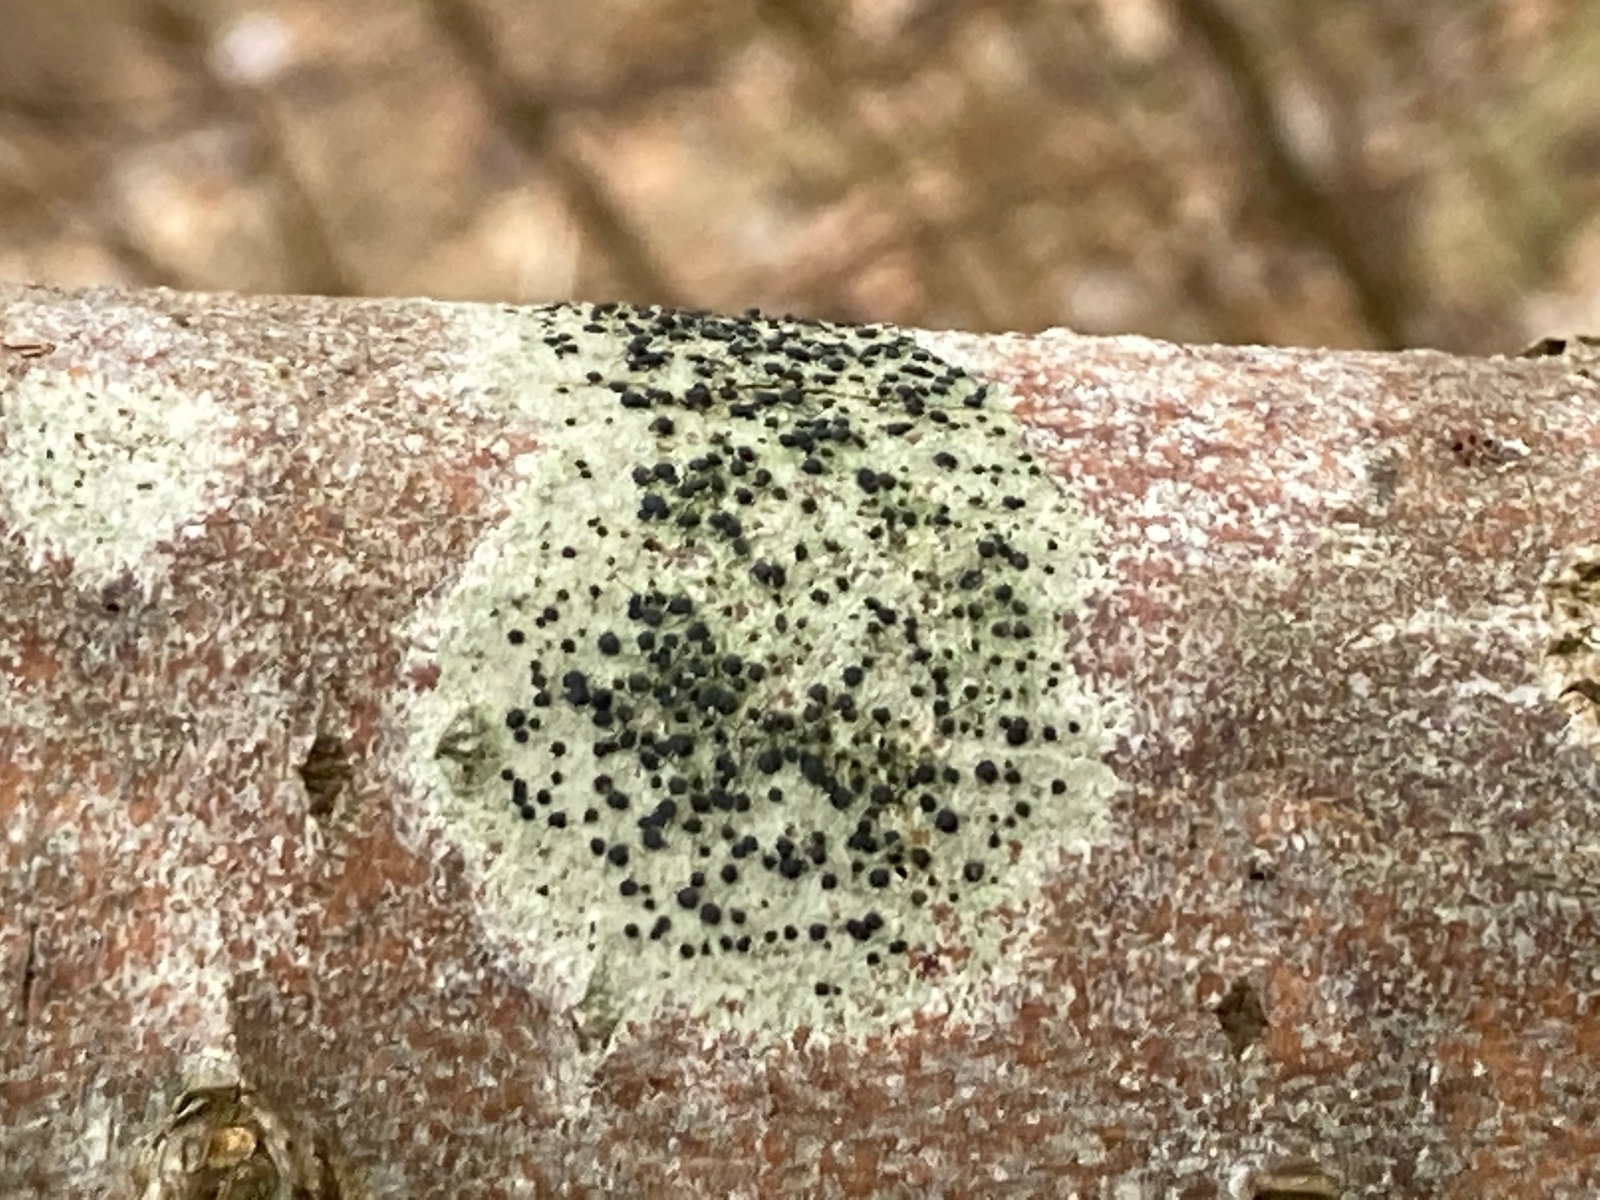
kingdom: Fungi
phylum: Ascomycota
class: Lecanoromycetes
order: Lecanorales
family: Lecanoraceae
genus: Lecidella
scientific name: Lecidella elaeochroma
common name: grågrøn skivelav
